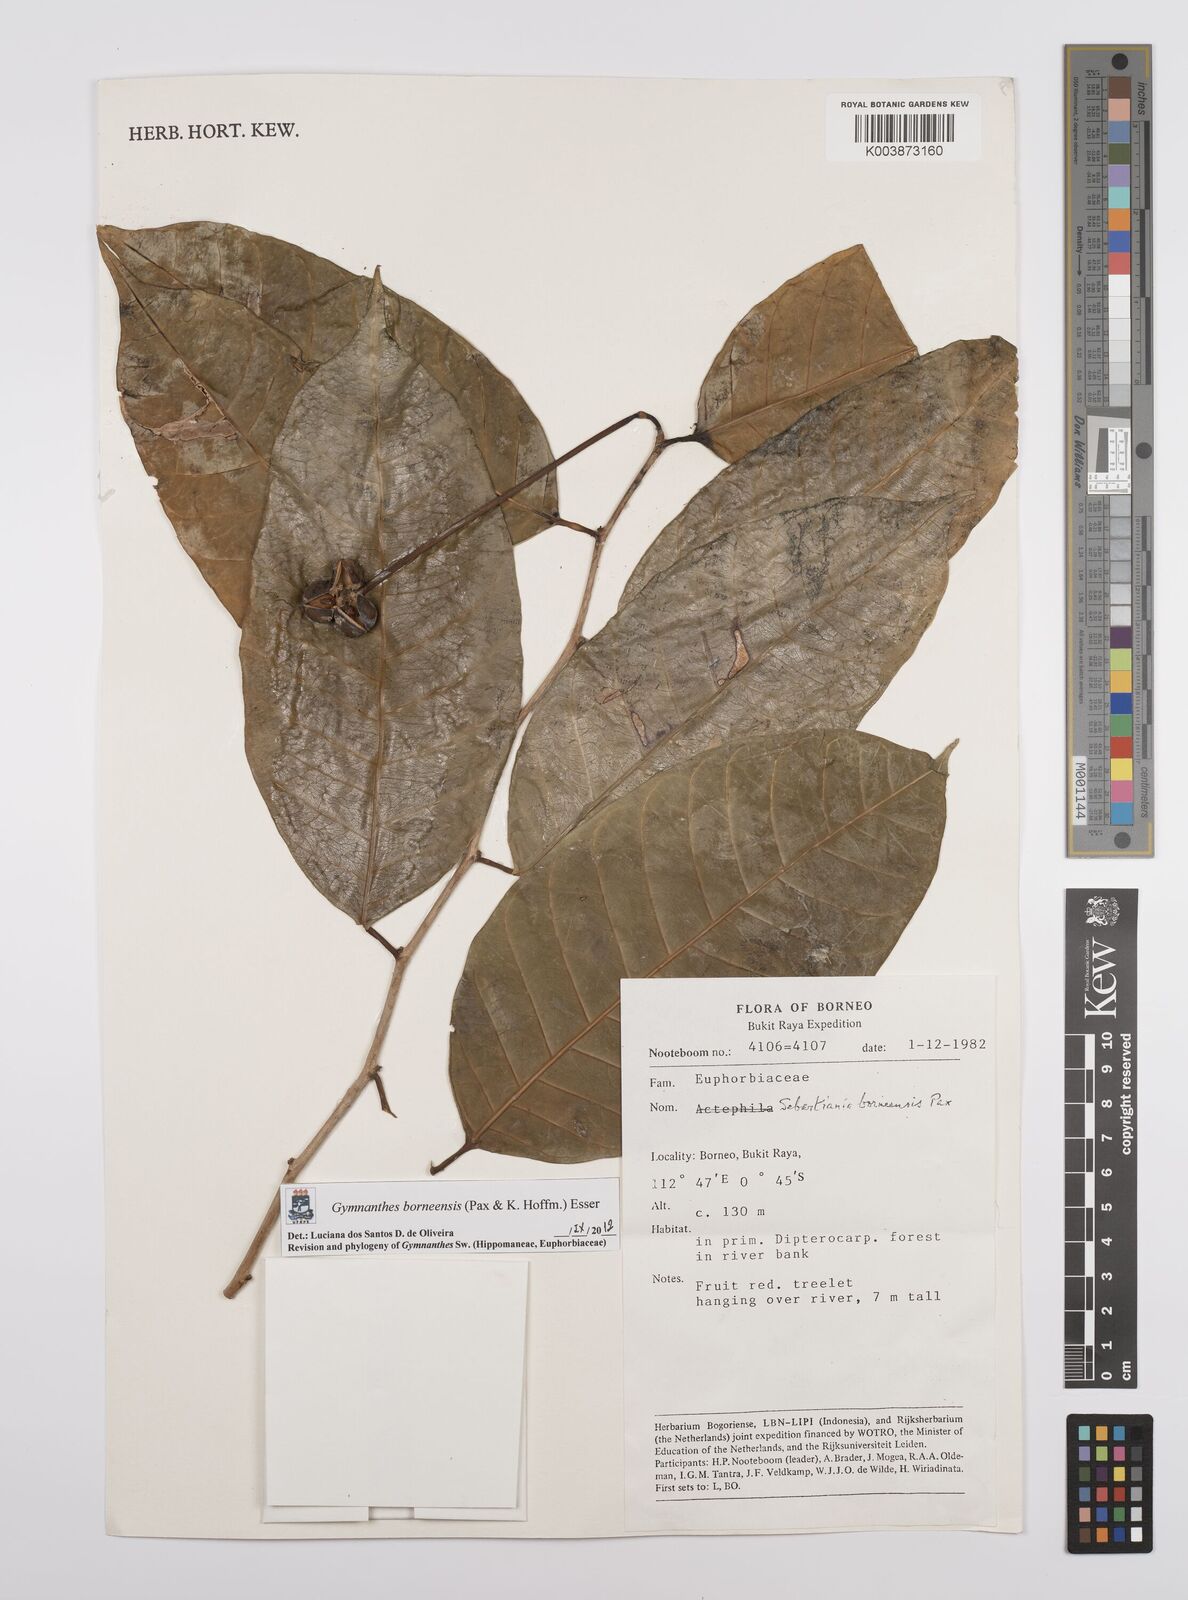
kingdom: Plantae
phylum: Tracheophyta
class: Magnoliopsida
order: Malpighiales
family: Euphorbiaceae
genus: Gymnanthes
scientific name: Gymnanthes borneensis
